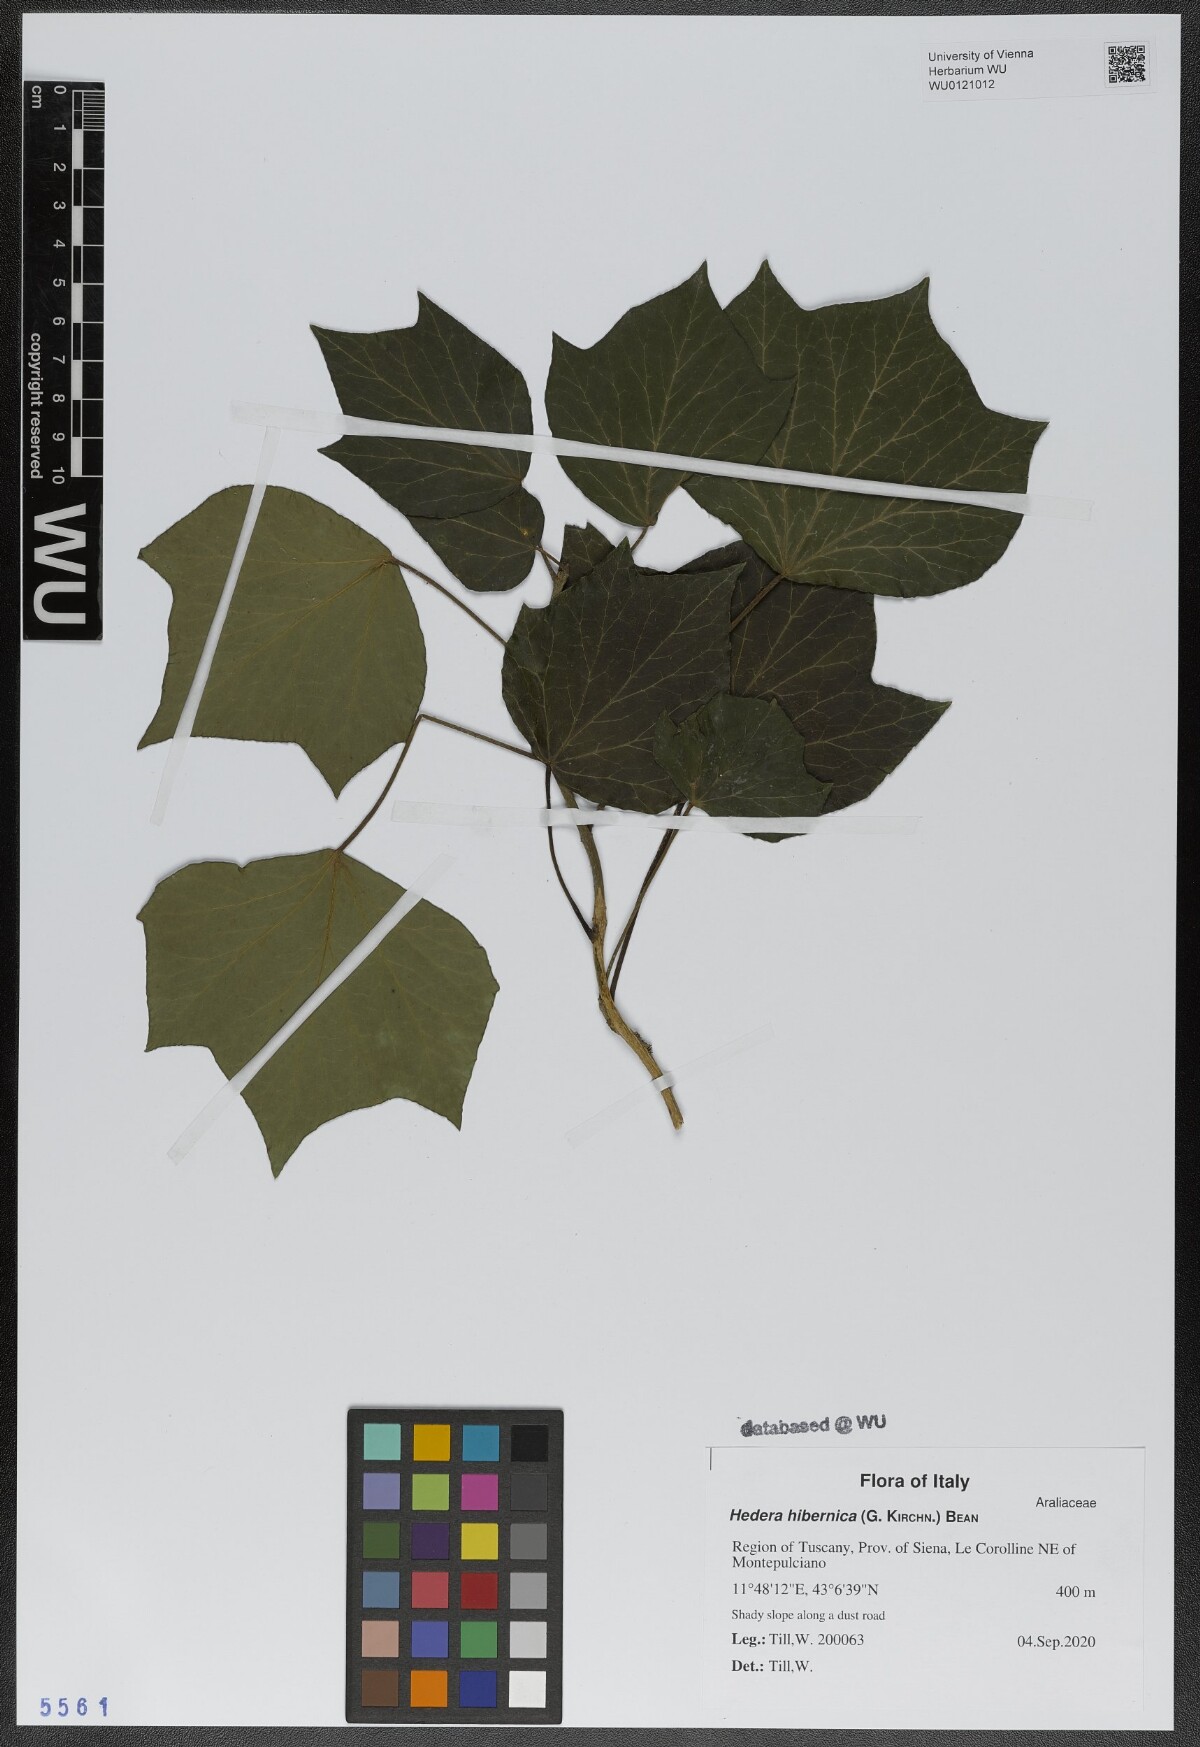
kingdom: Plantae
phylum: Tracheophyta
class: Magnoliopsida
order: Apiales
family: Araliaceae
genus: Hedera
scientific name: Hedera hibernica
